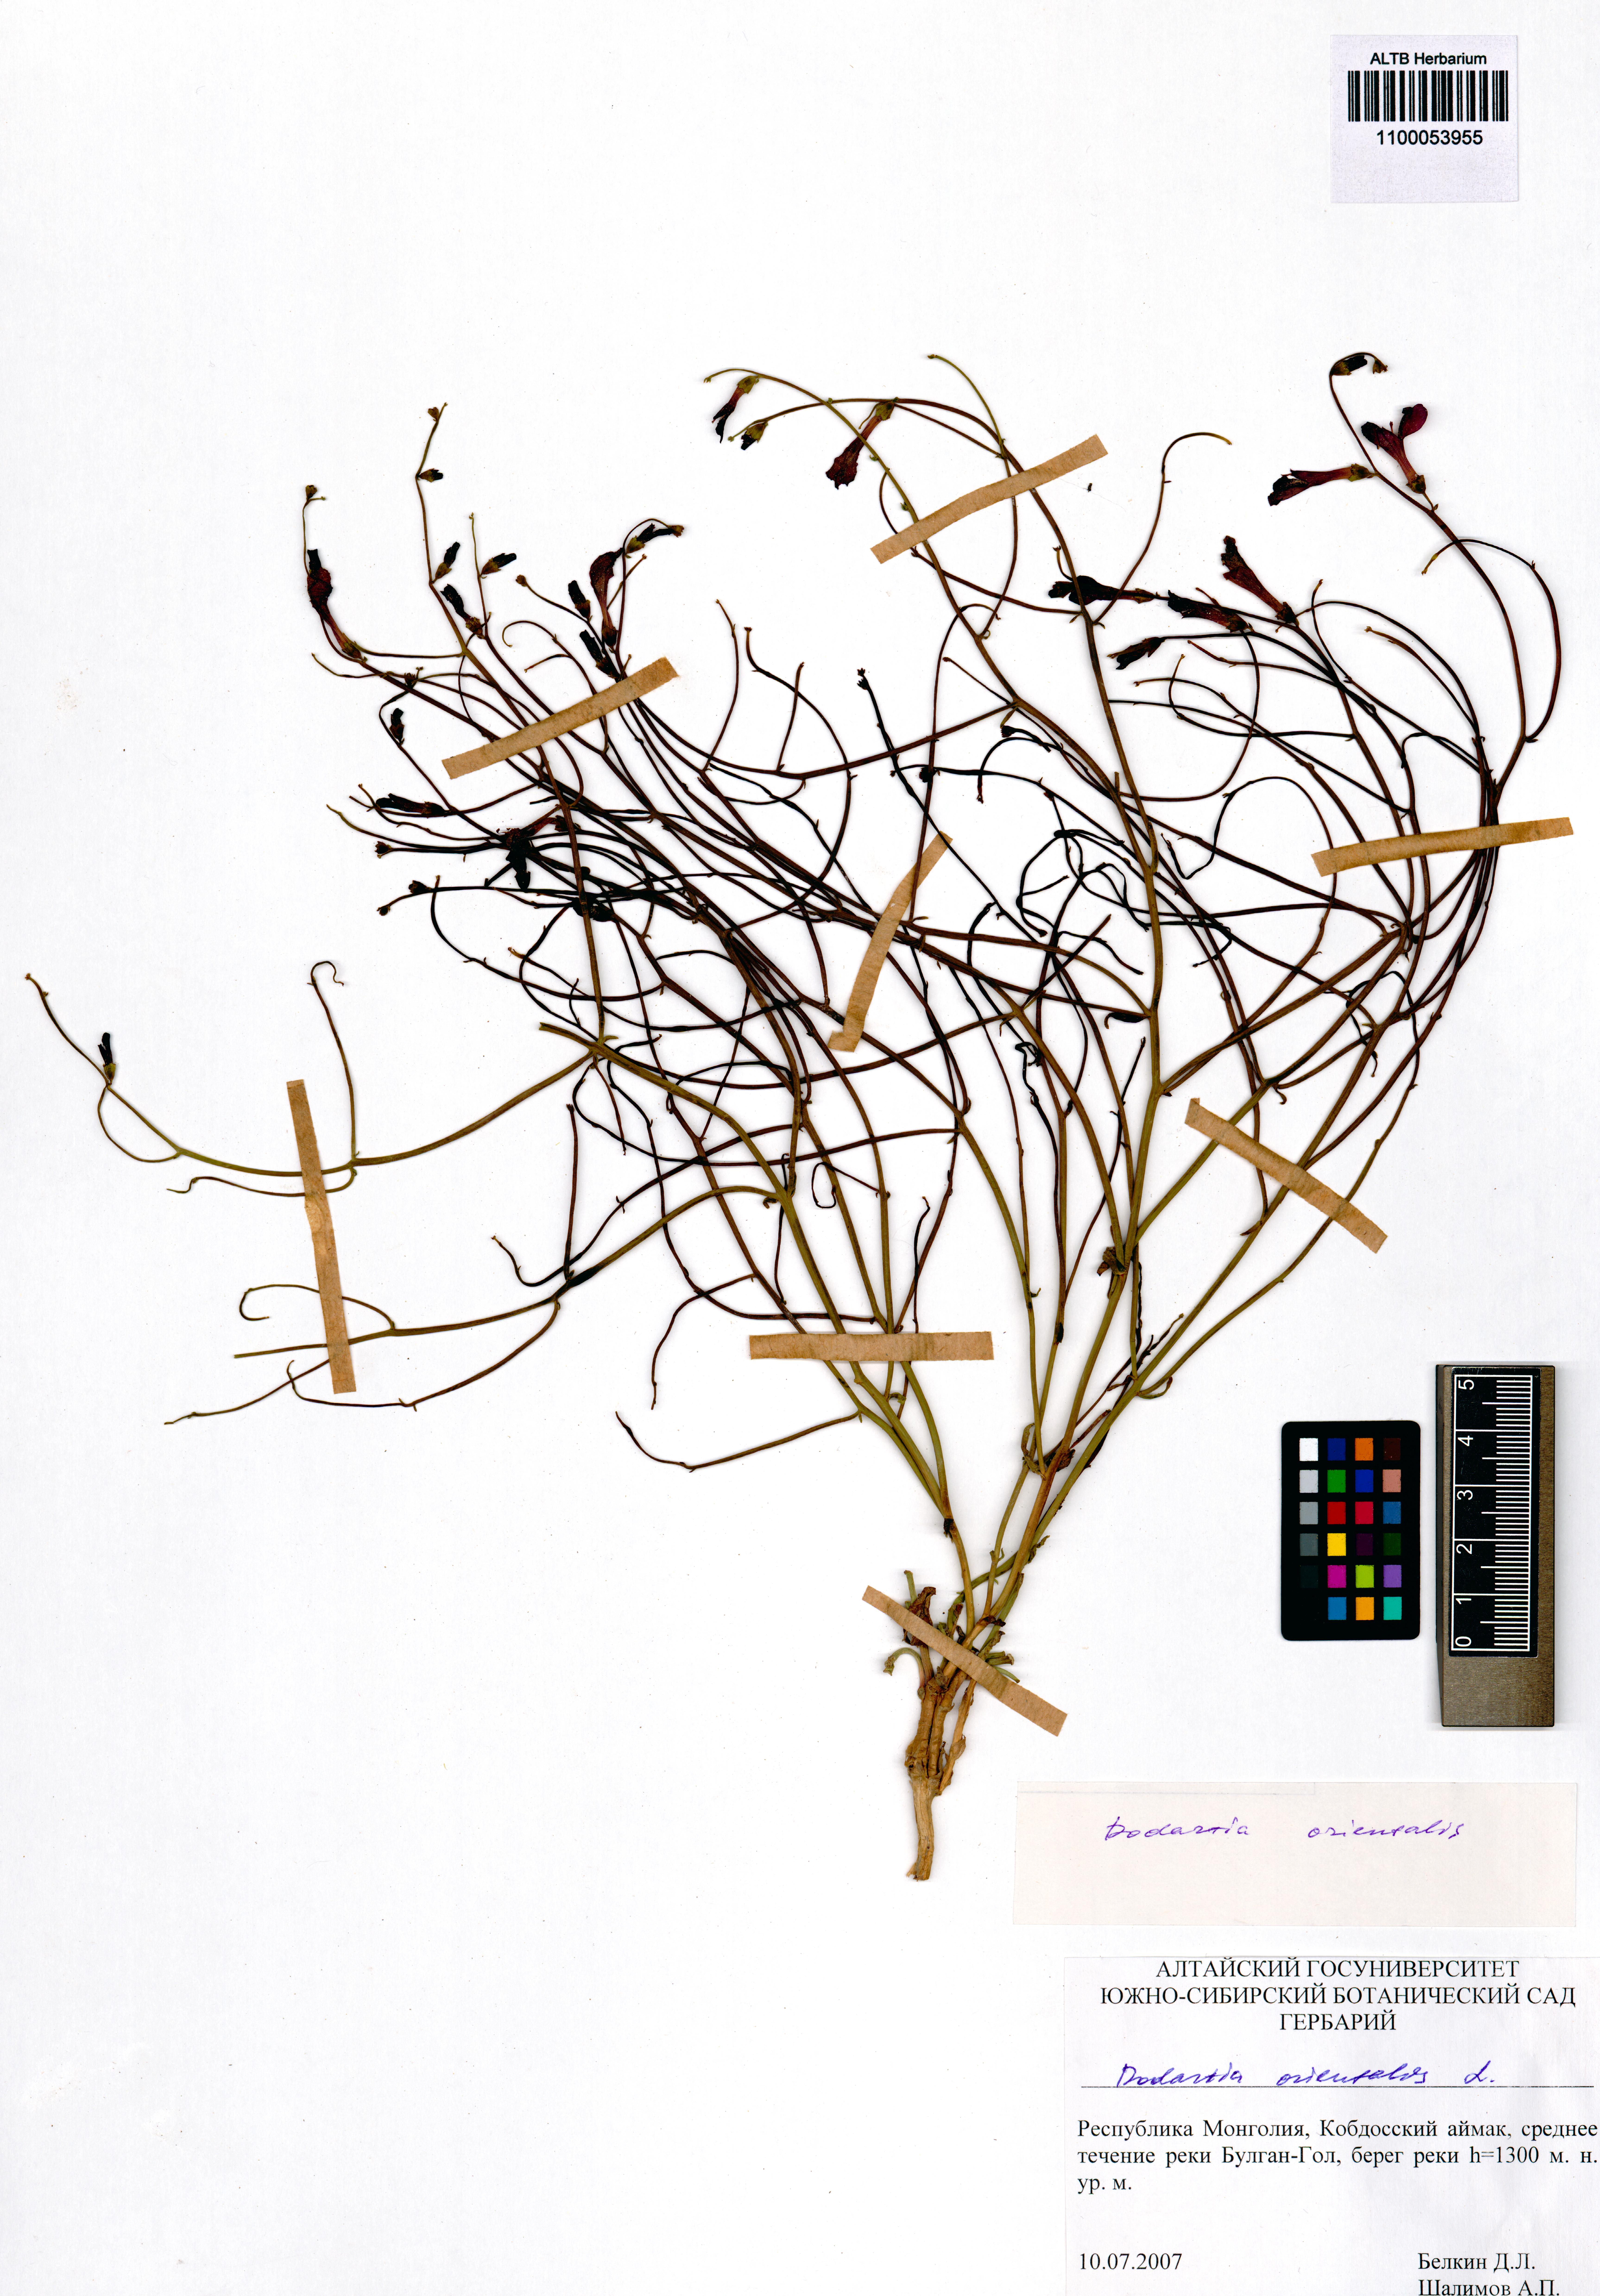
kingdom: Plantae
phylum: Tracheophyta
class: Magnoliopsida
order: Lamiales
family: Mazaceae
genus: Dodartia
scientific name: Dodartia orientalis
